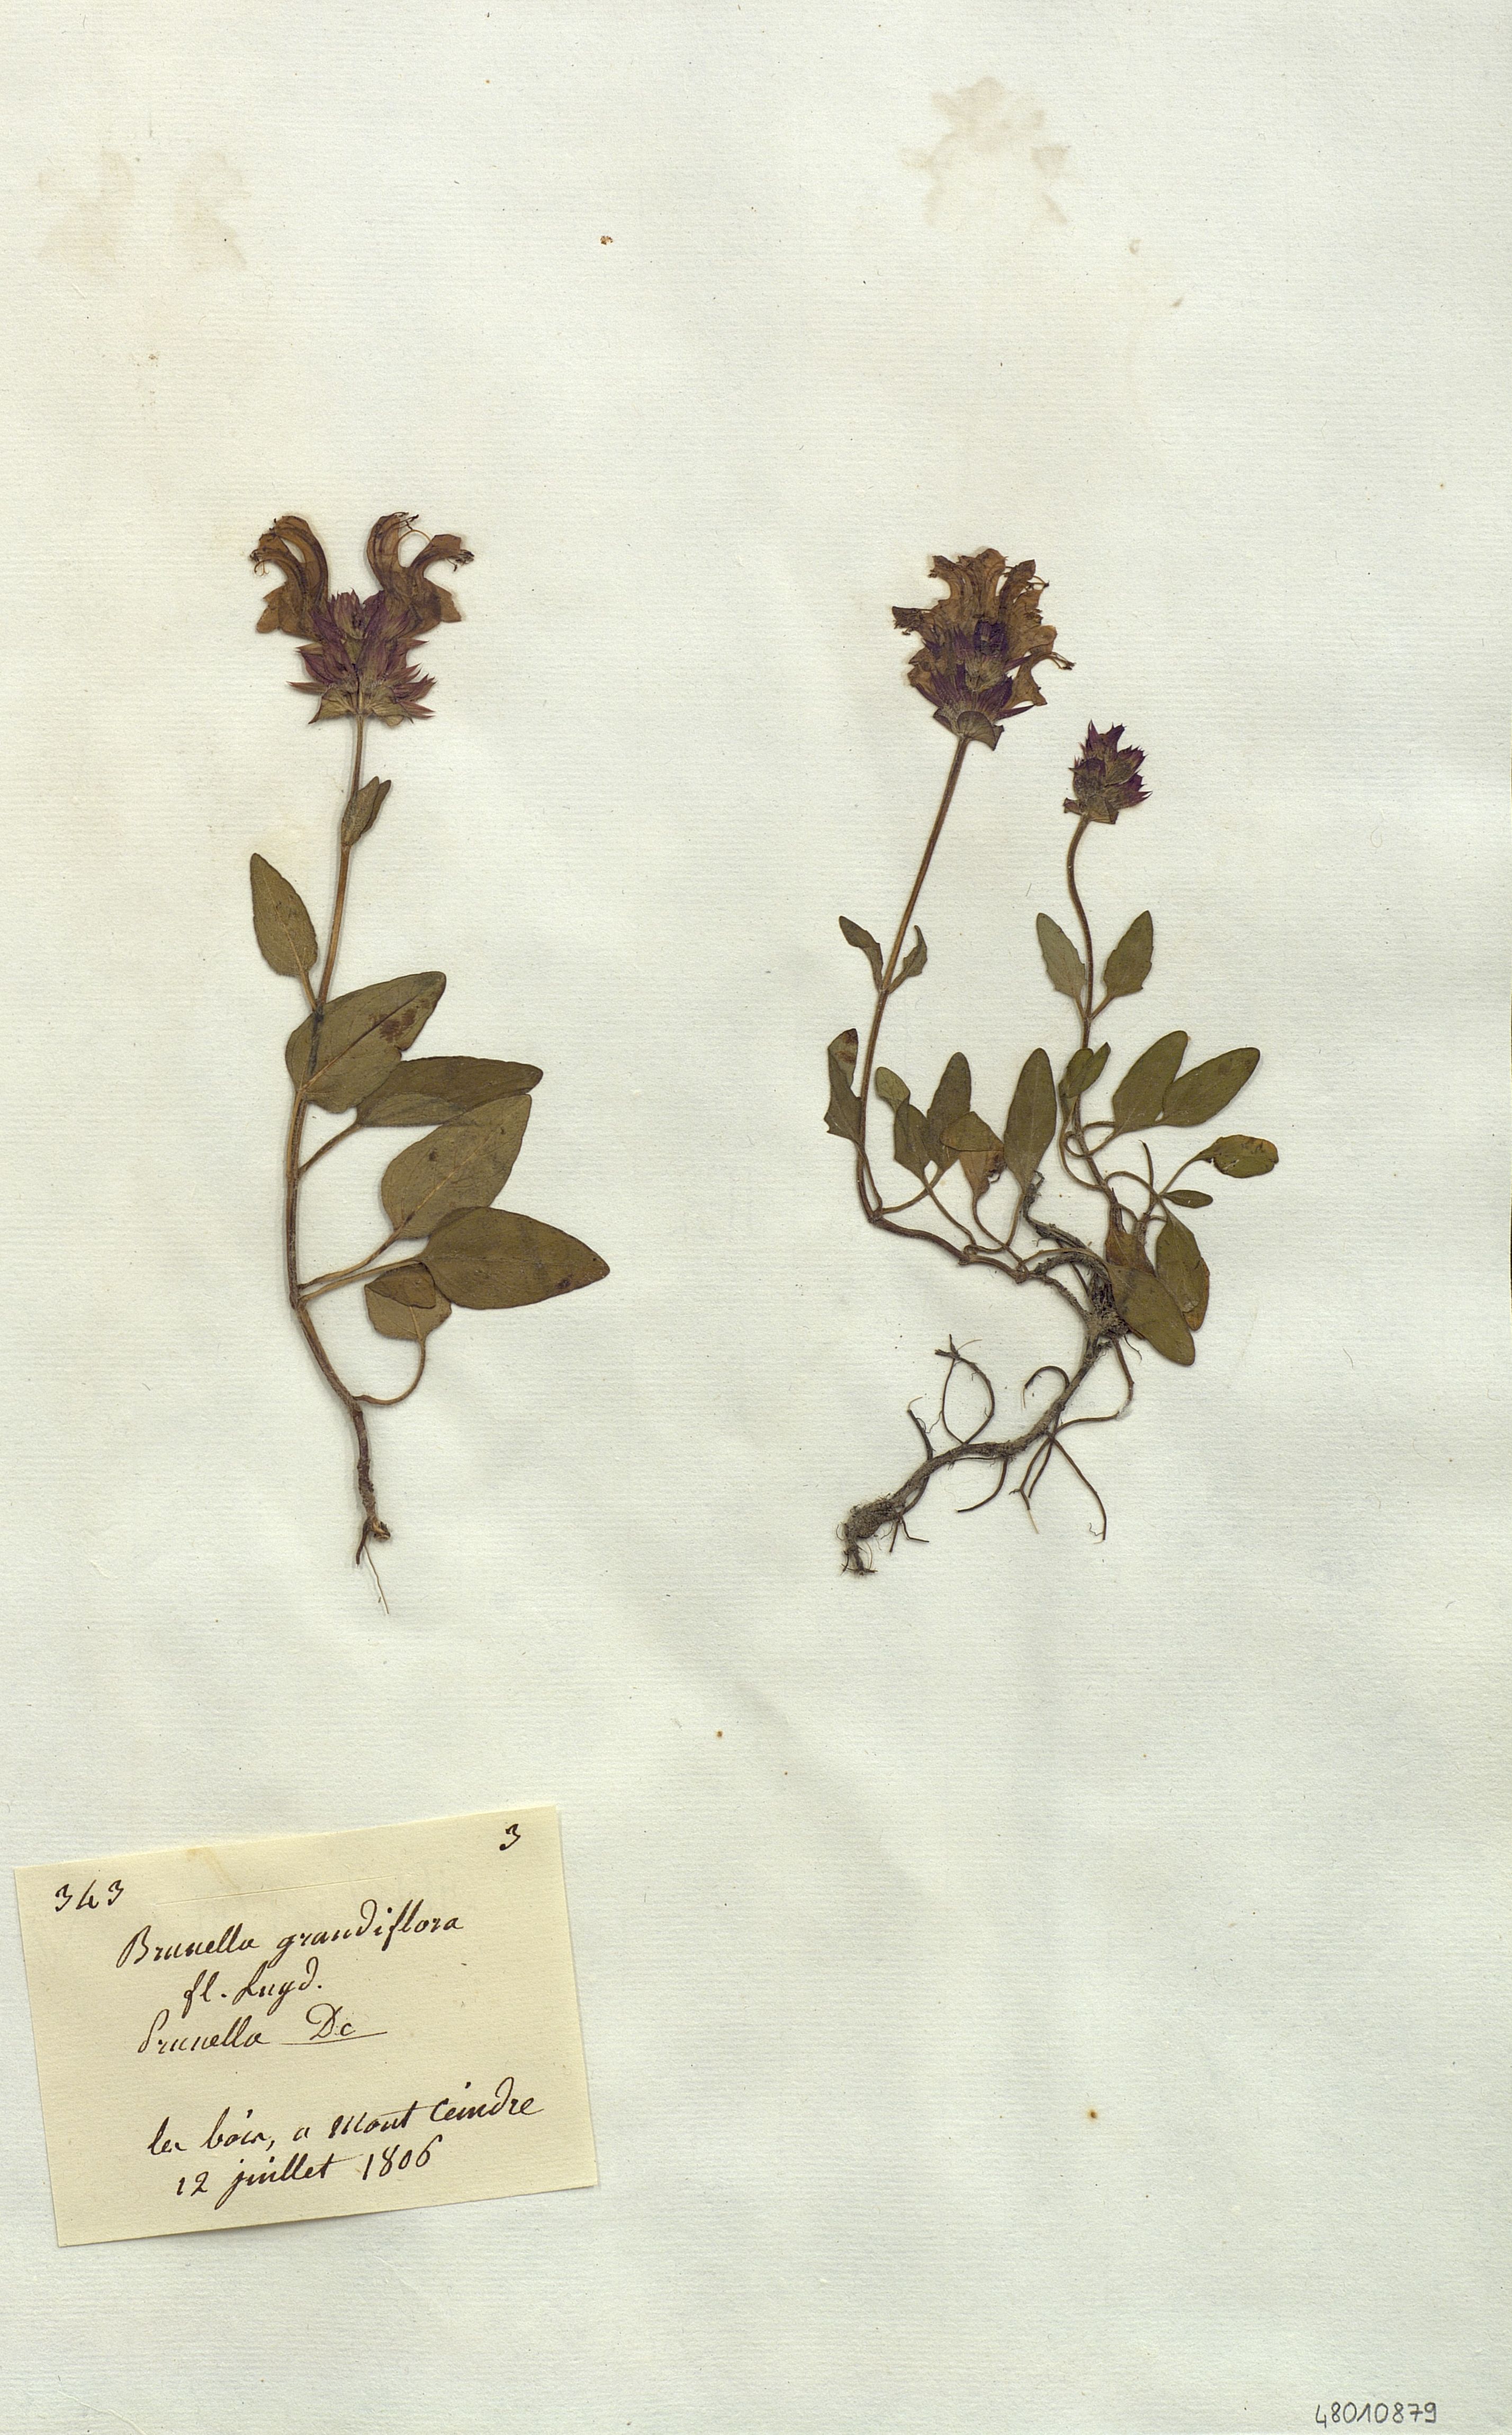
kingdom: Plantae
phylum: Tracheophyta
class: Magnoliopsida
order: Lamiales
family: Lamiaceae
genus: Brunella
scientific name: Brunella
